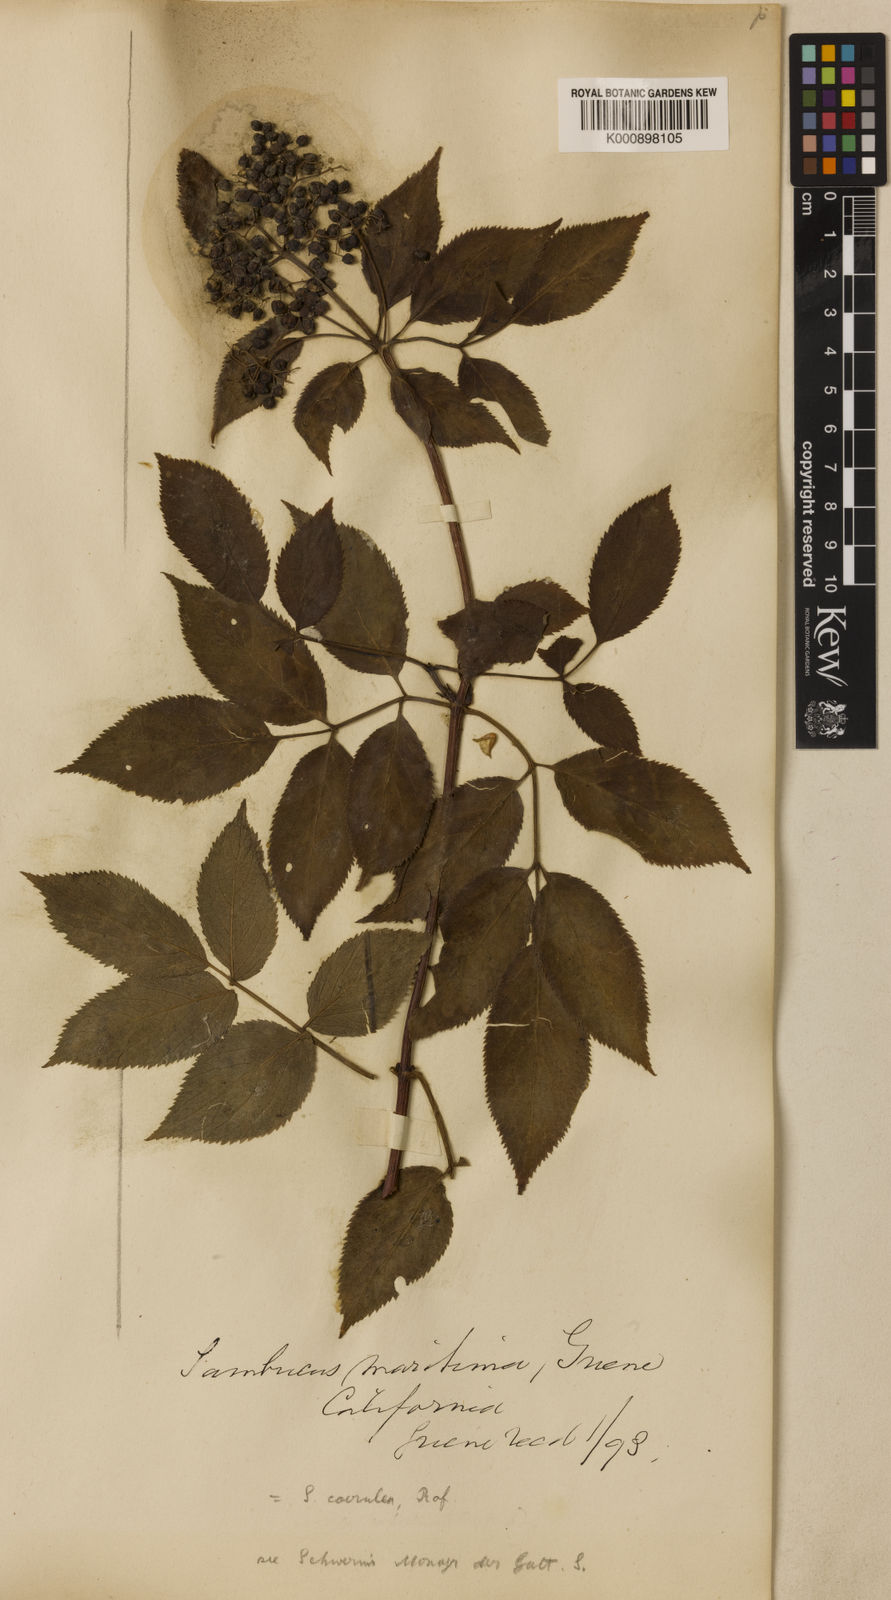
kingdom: Plantae
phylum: Tracheophyta
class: Magnoliopsida
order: Dipsacales
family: Viburnaceae
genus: Sambucus
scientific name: Sambucus
